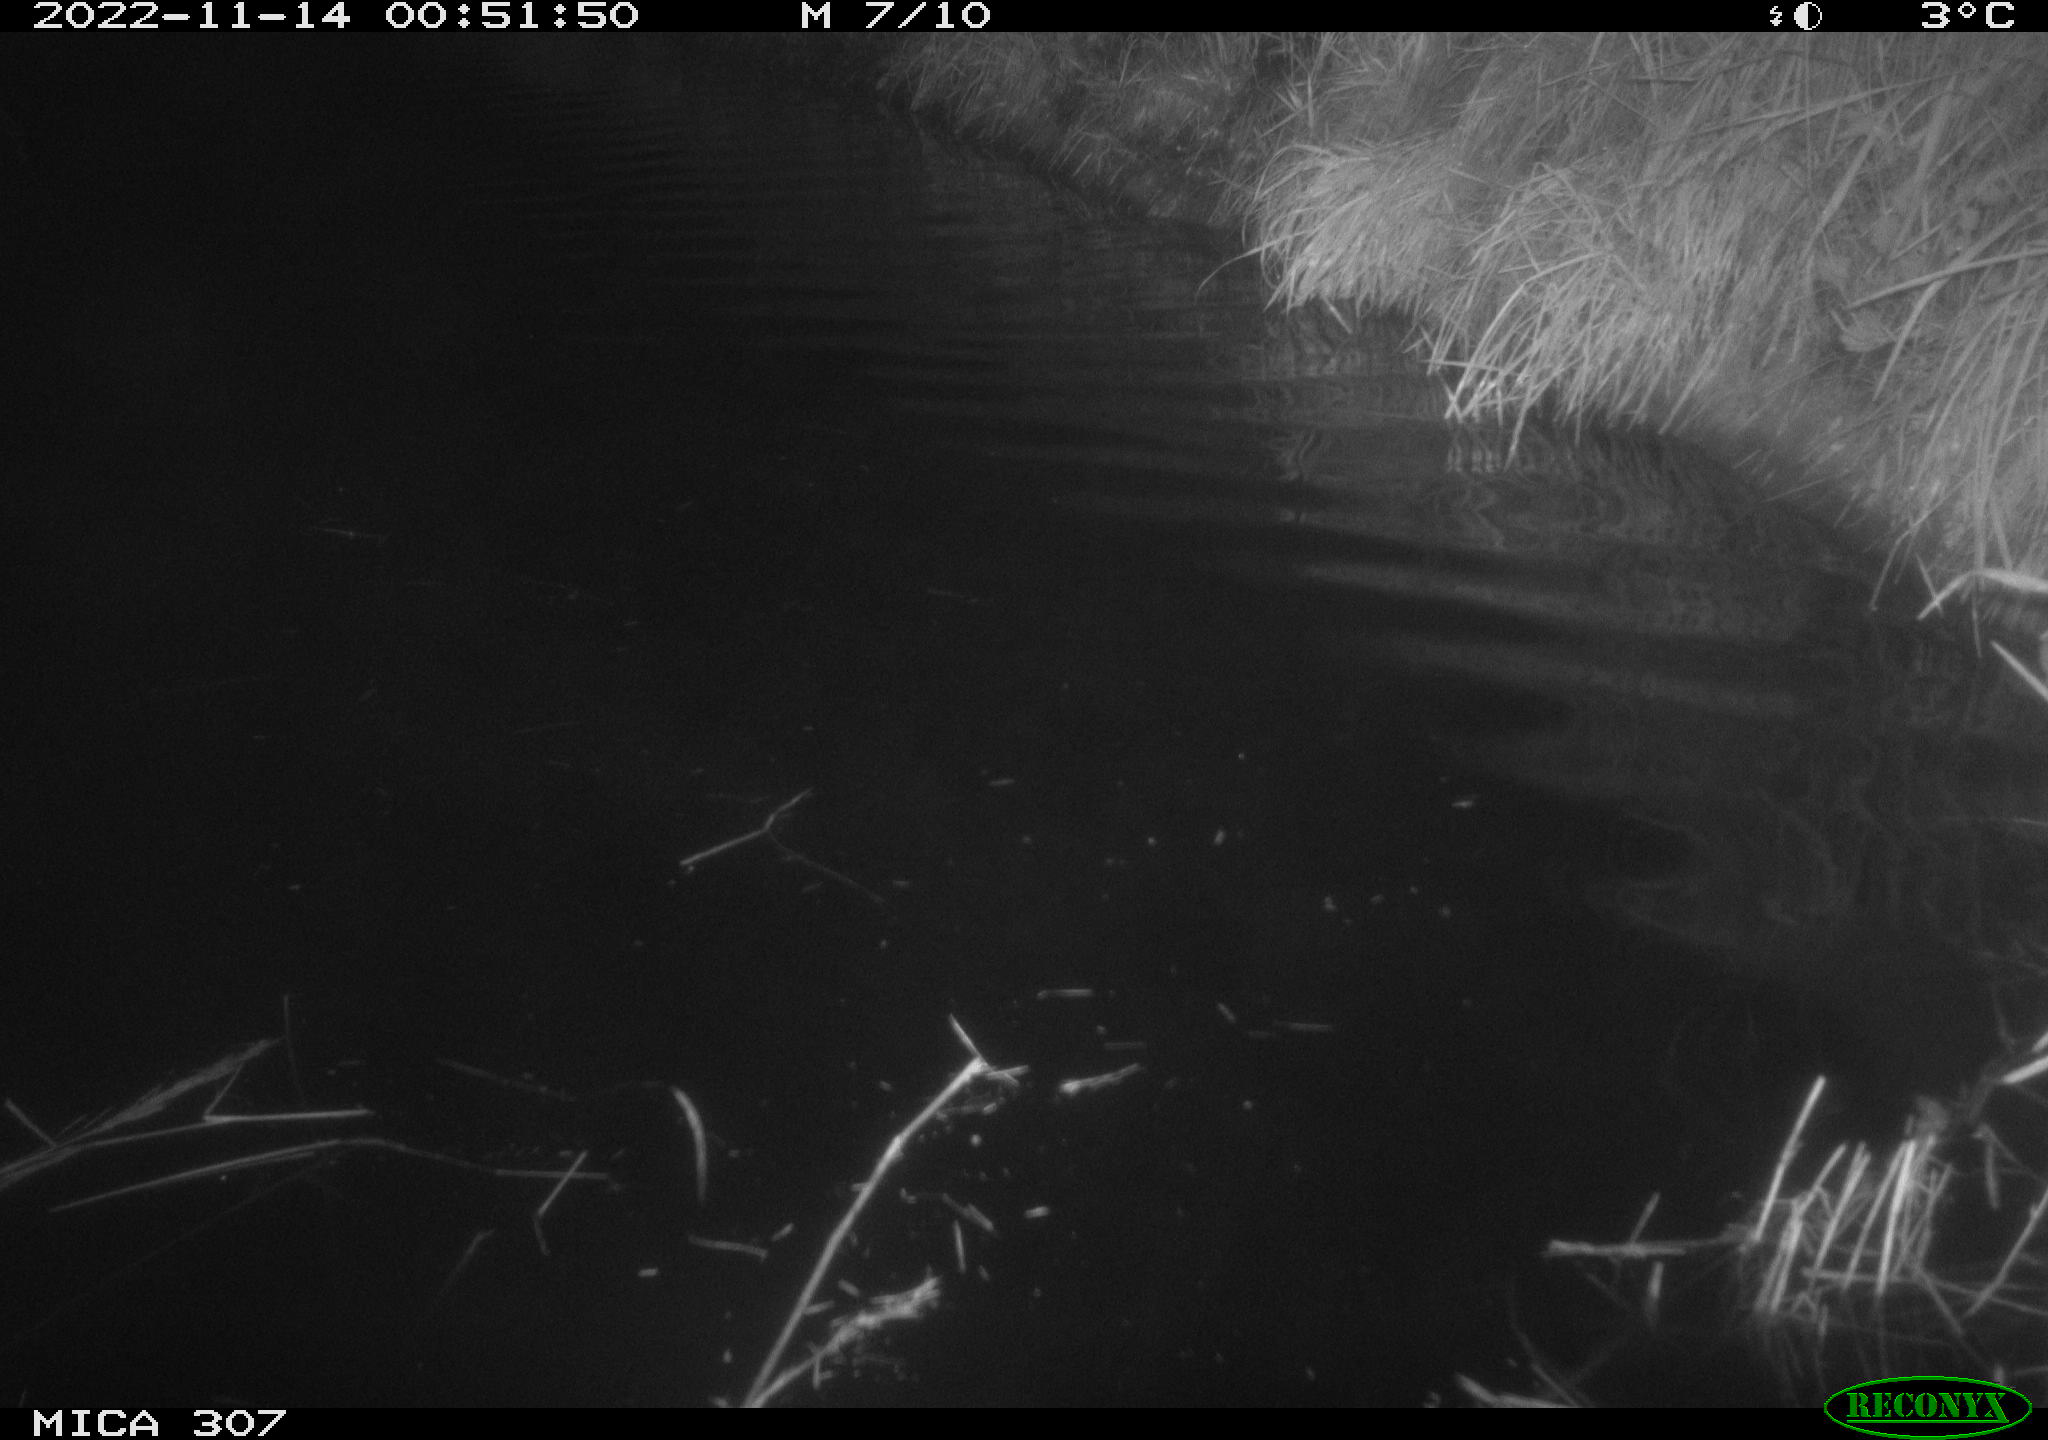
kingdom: Animalia
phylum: Chordata
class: Aves
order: Anseriformes
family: Anatidae
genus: Anas
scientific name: Anas
